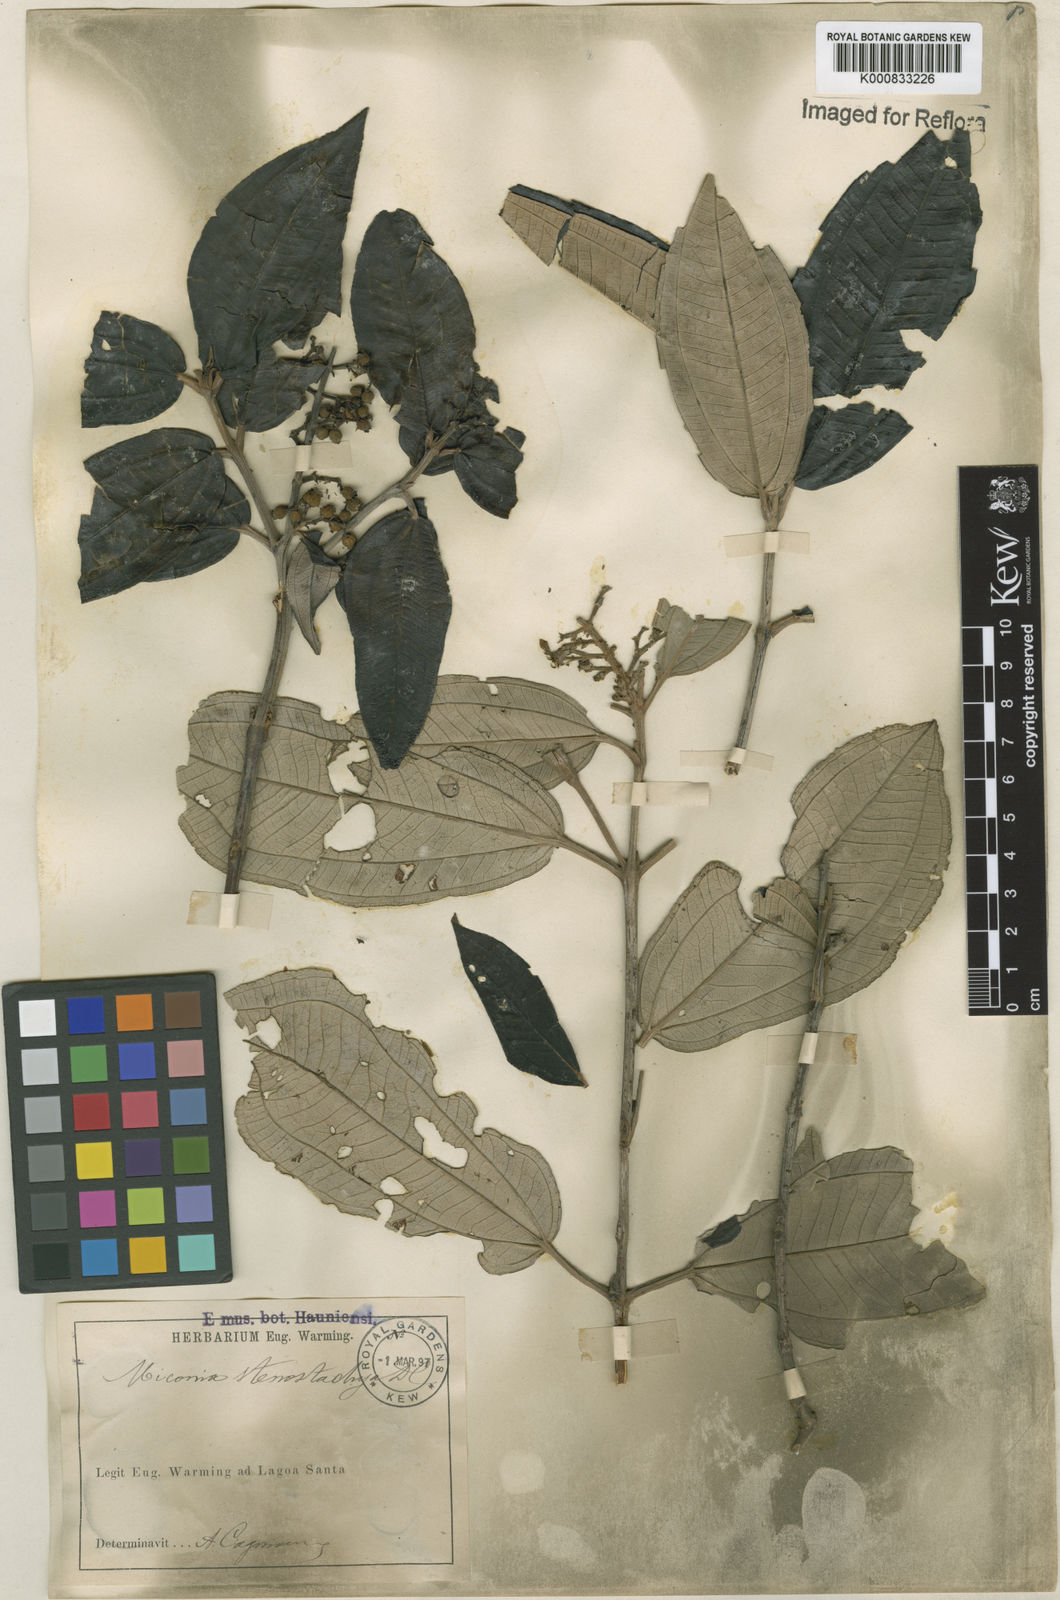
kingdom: Plantae
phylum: Tracheophyta
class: Magnoliopsida
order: Myrtales
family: Melastomataceae
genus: Miconia
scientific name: Miconia stenostachya
